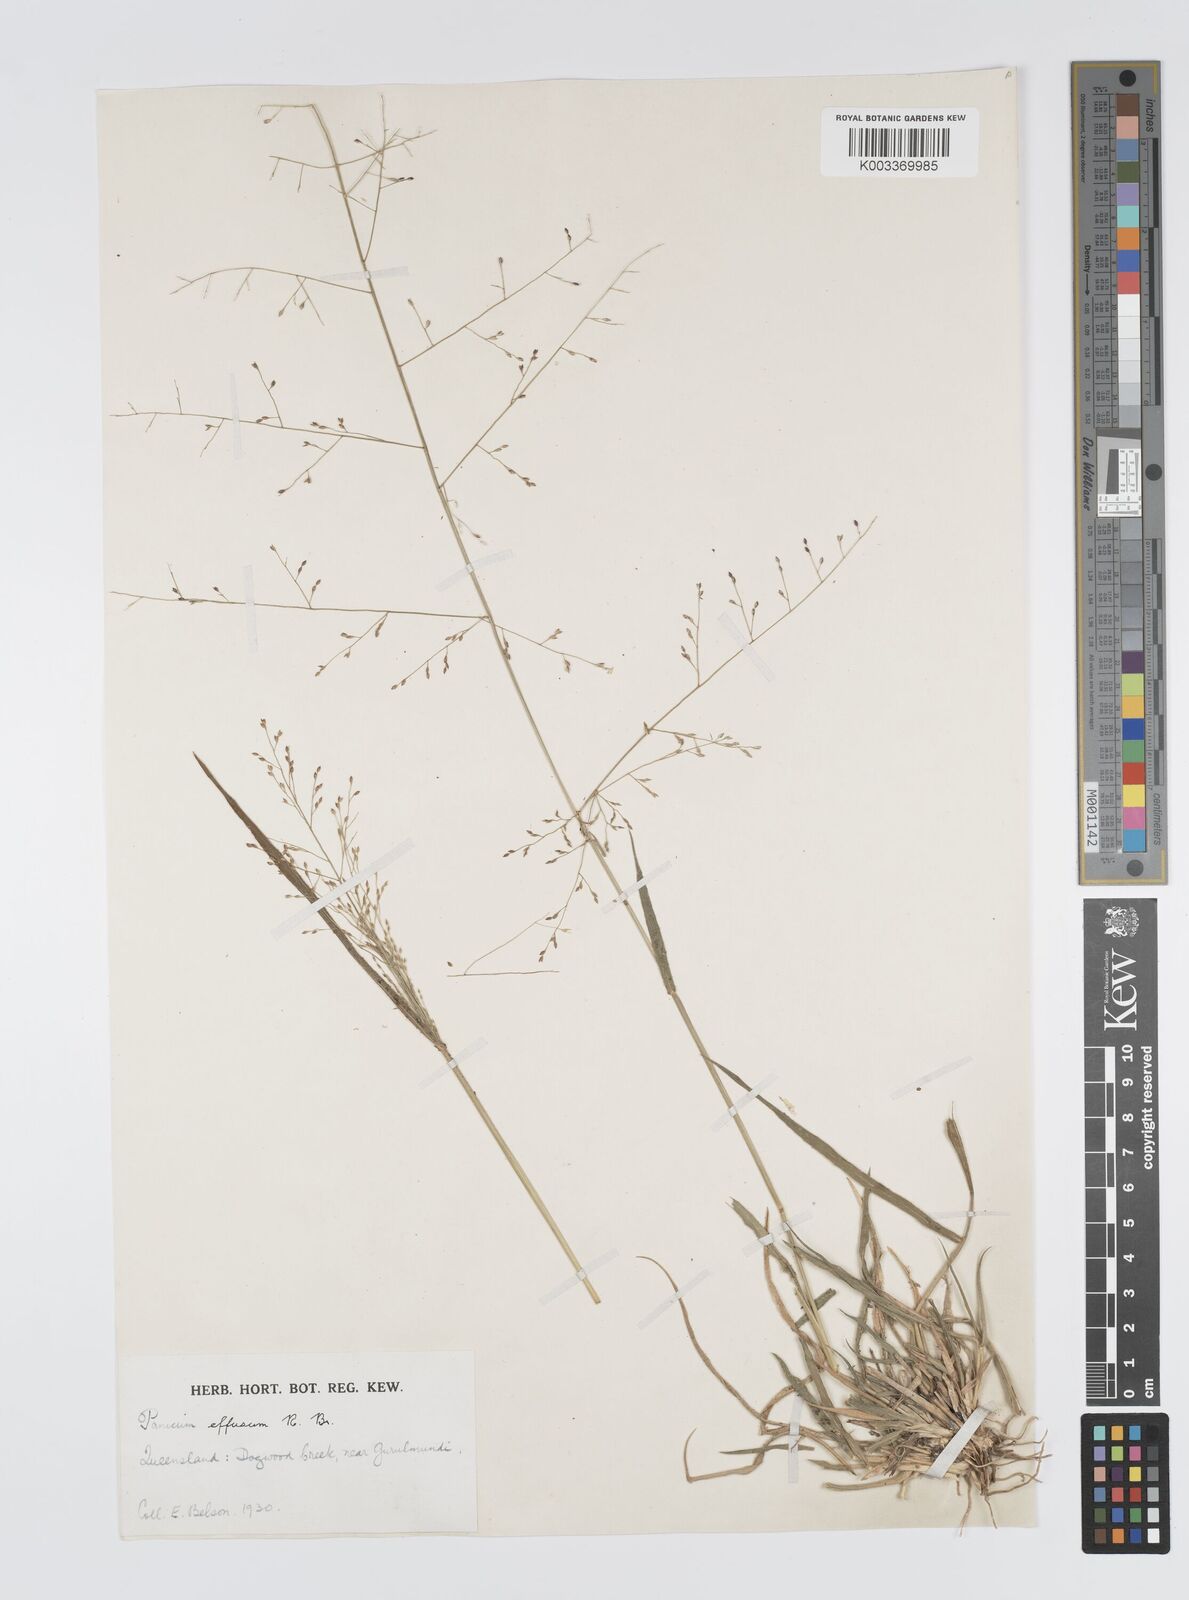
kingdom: Plantae
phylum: Tracheophyta
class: Liliopsida
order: Poales
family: Poaceae
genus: Panicum
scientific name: Panicum effusum
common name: Hairy panic grass
